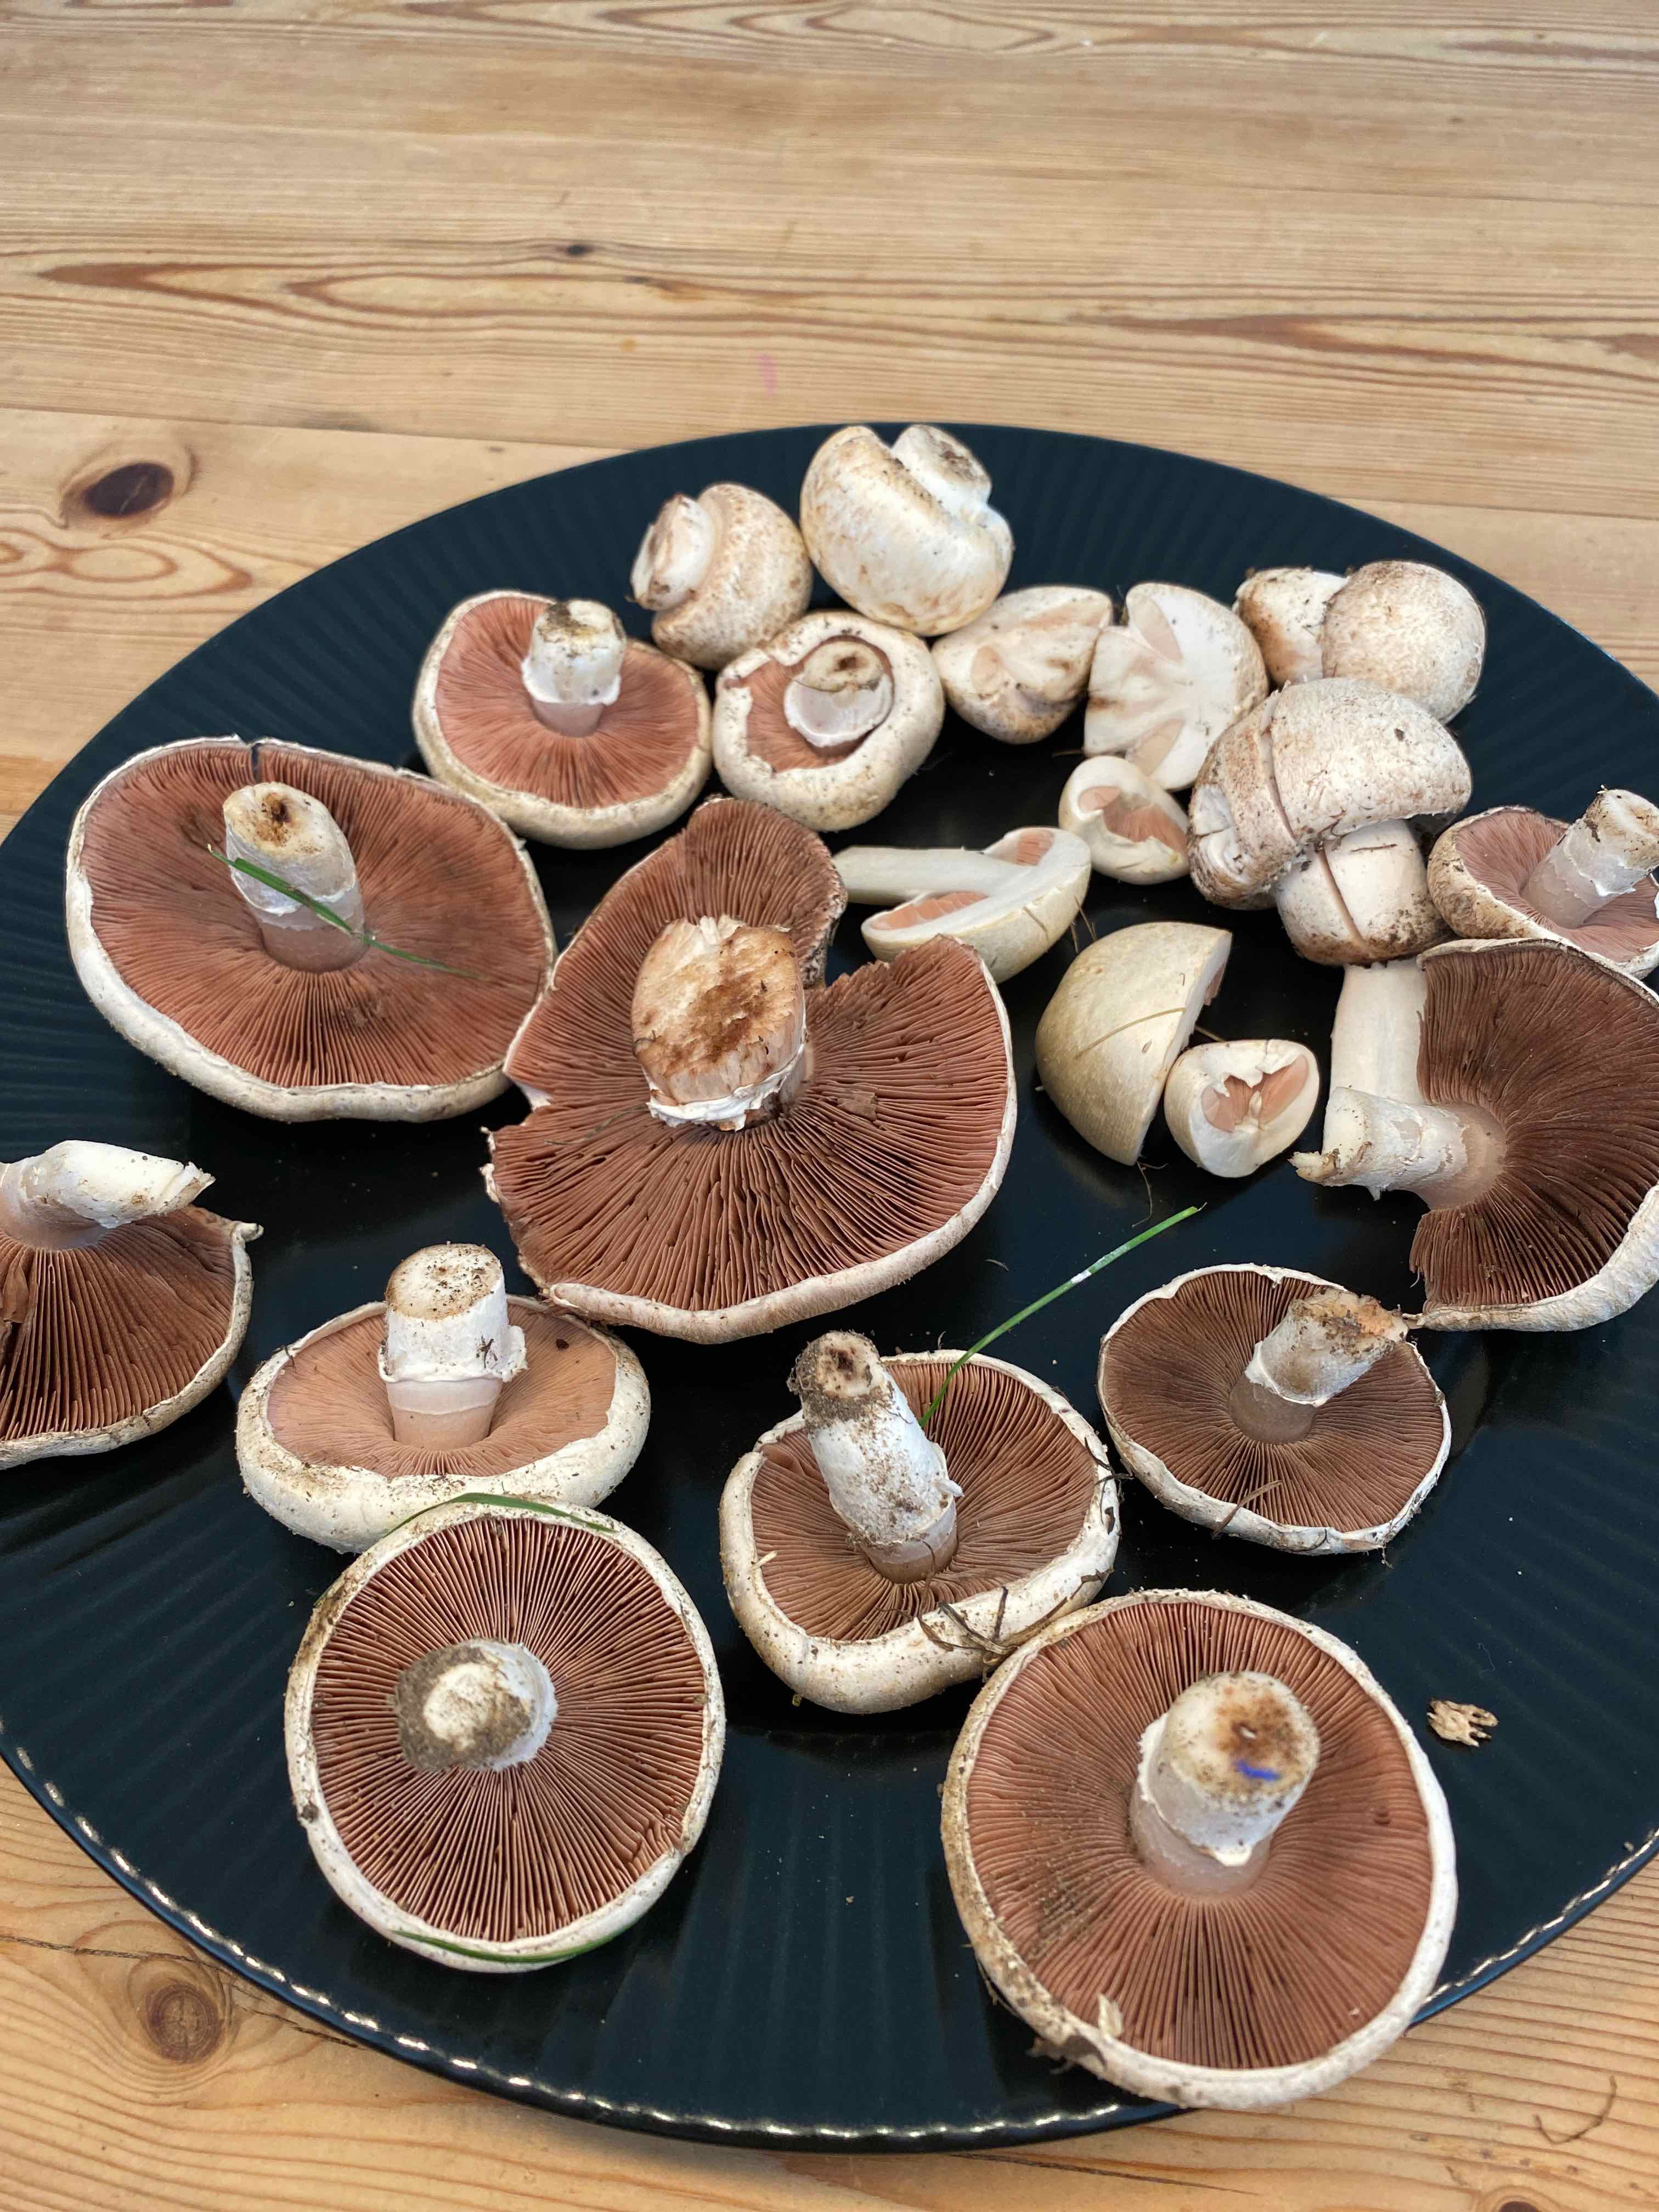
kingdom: Fungi
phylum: Basidiomycota
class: Agaricomycetes
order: Agaricales
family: Agaricaceae
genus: Agaricus
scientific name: Agaricus campestris
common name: mark-champignon
